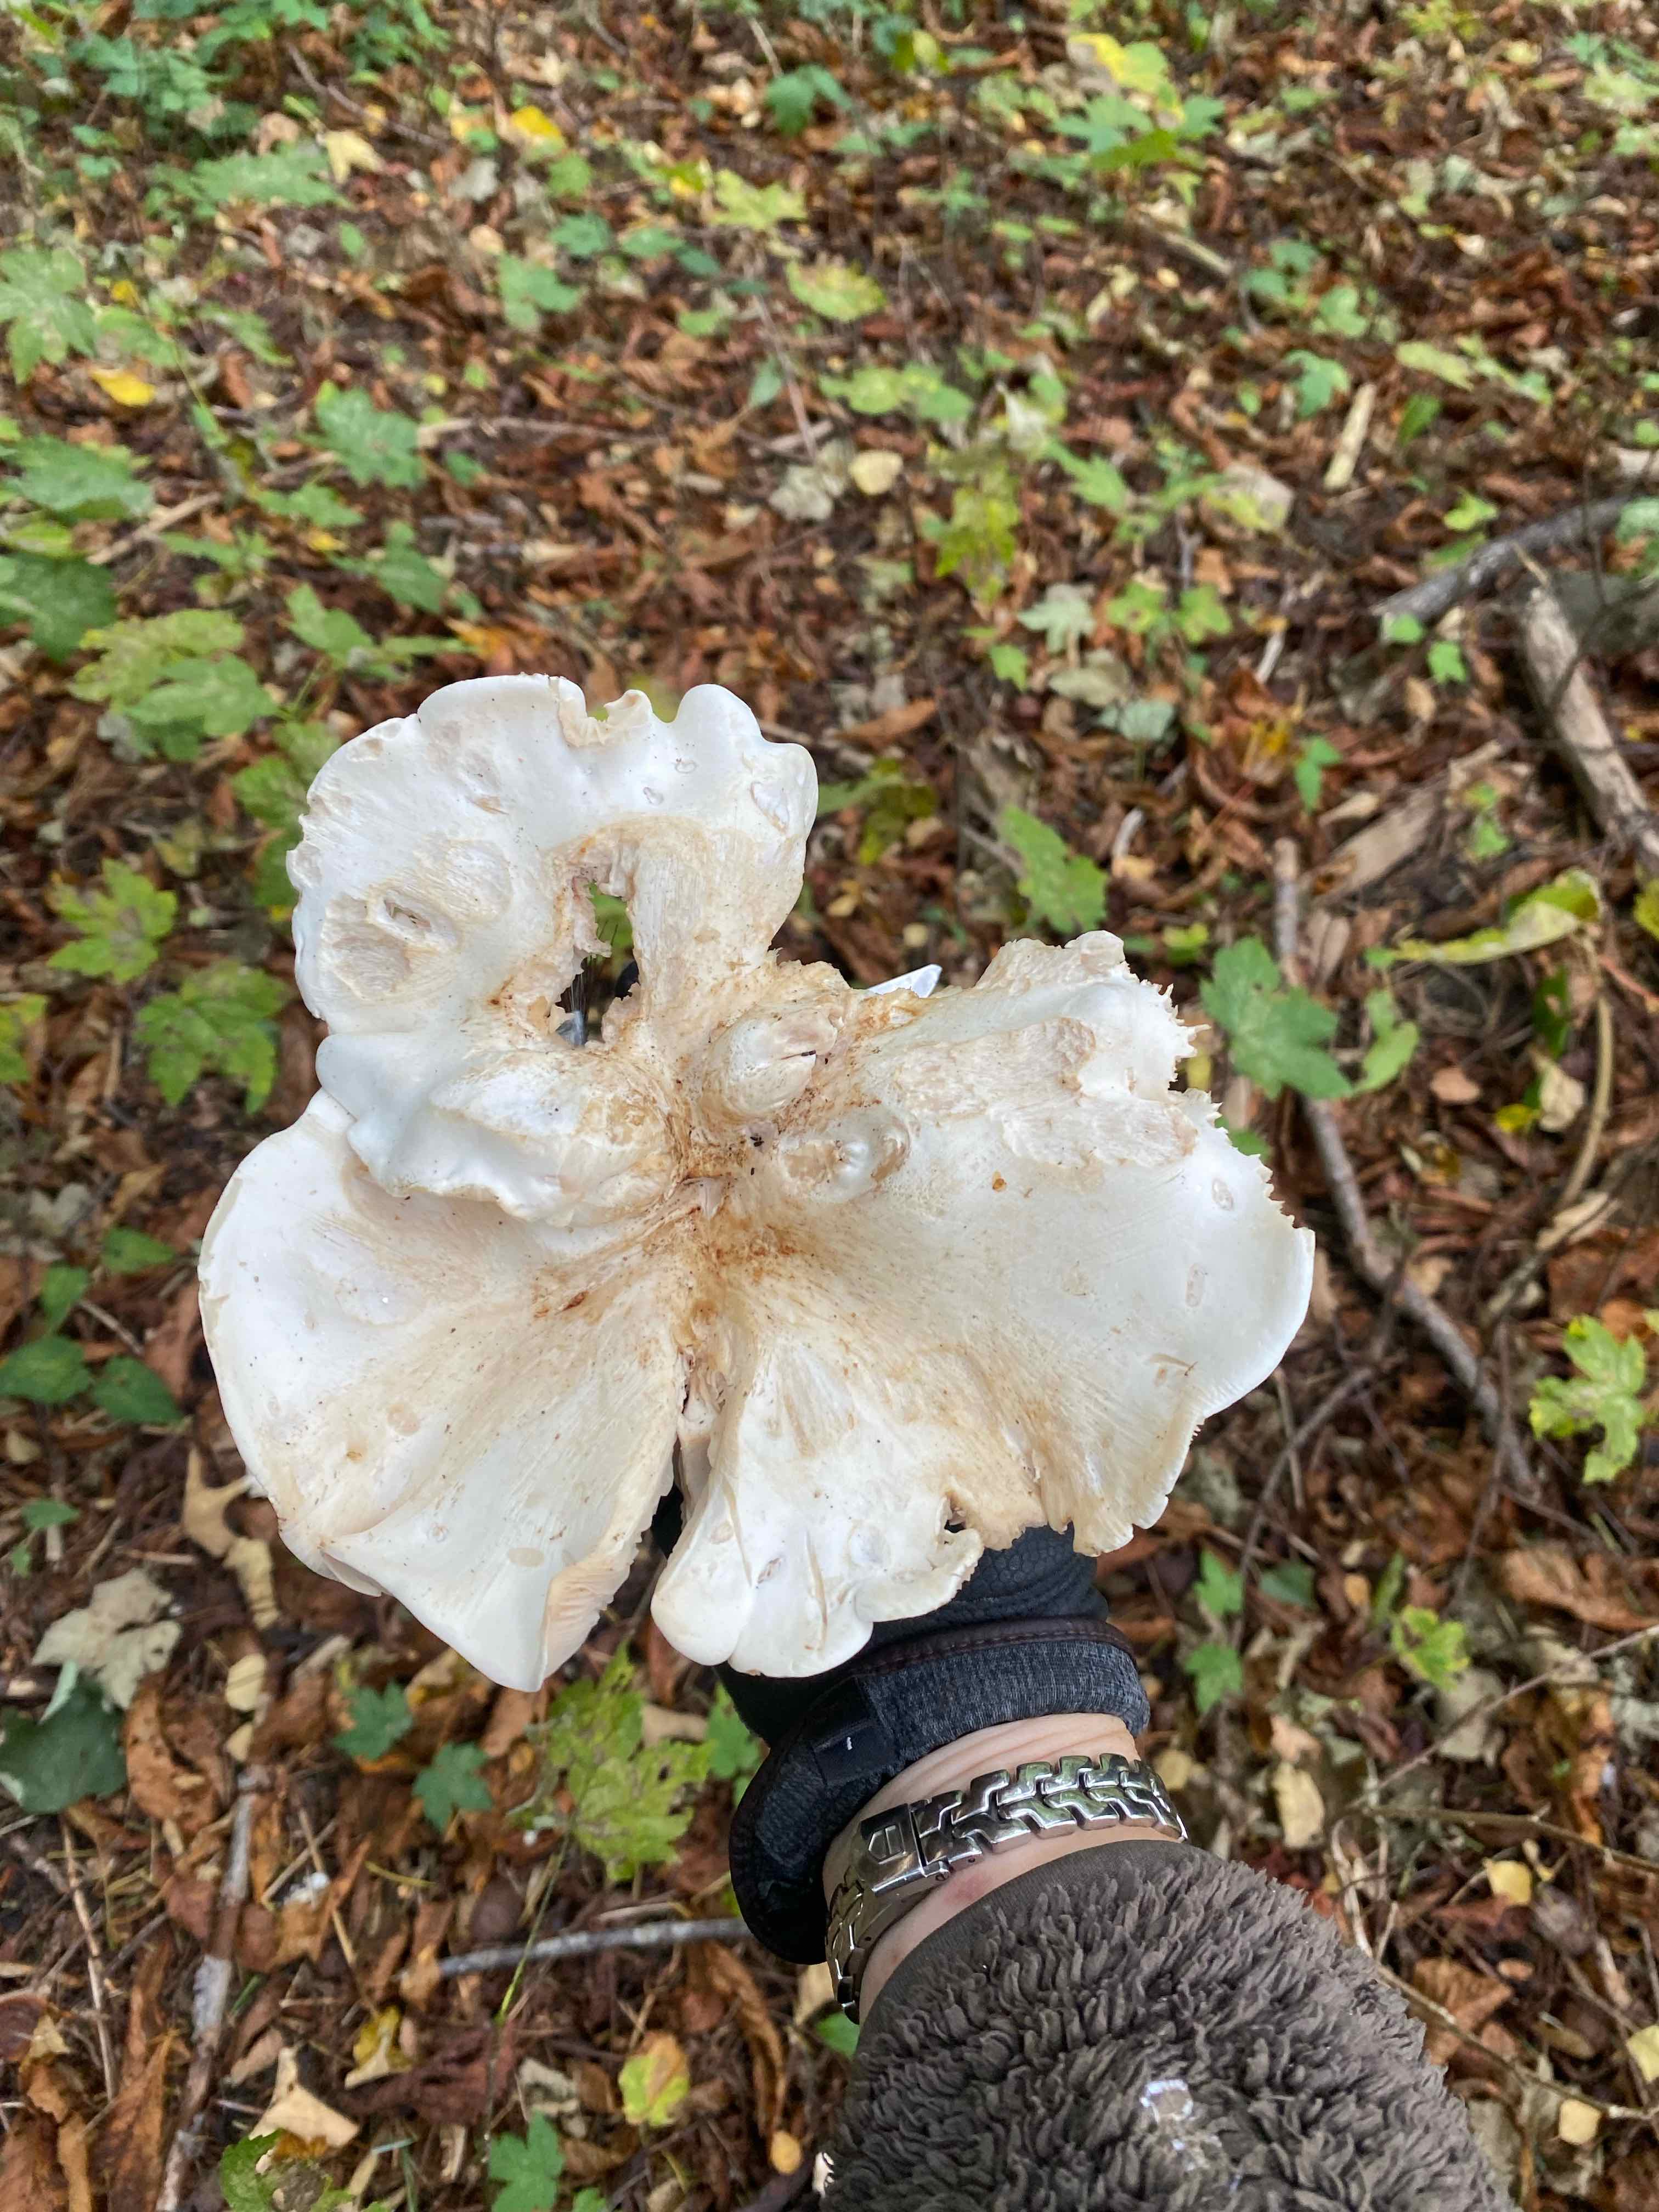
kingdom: Fungi
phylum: Basidiomycota
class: Agaricomycetes
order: Agaricales
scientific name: Agaricales
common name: champignonordenen
